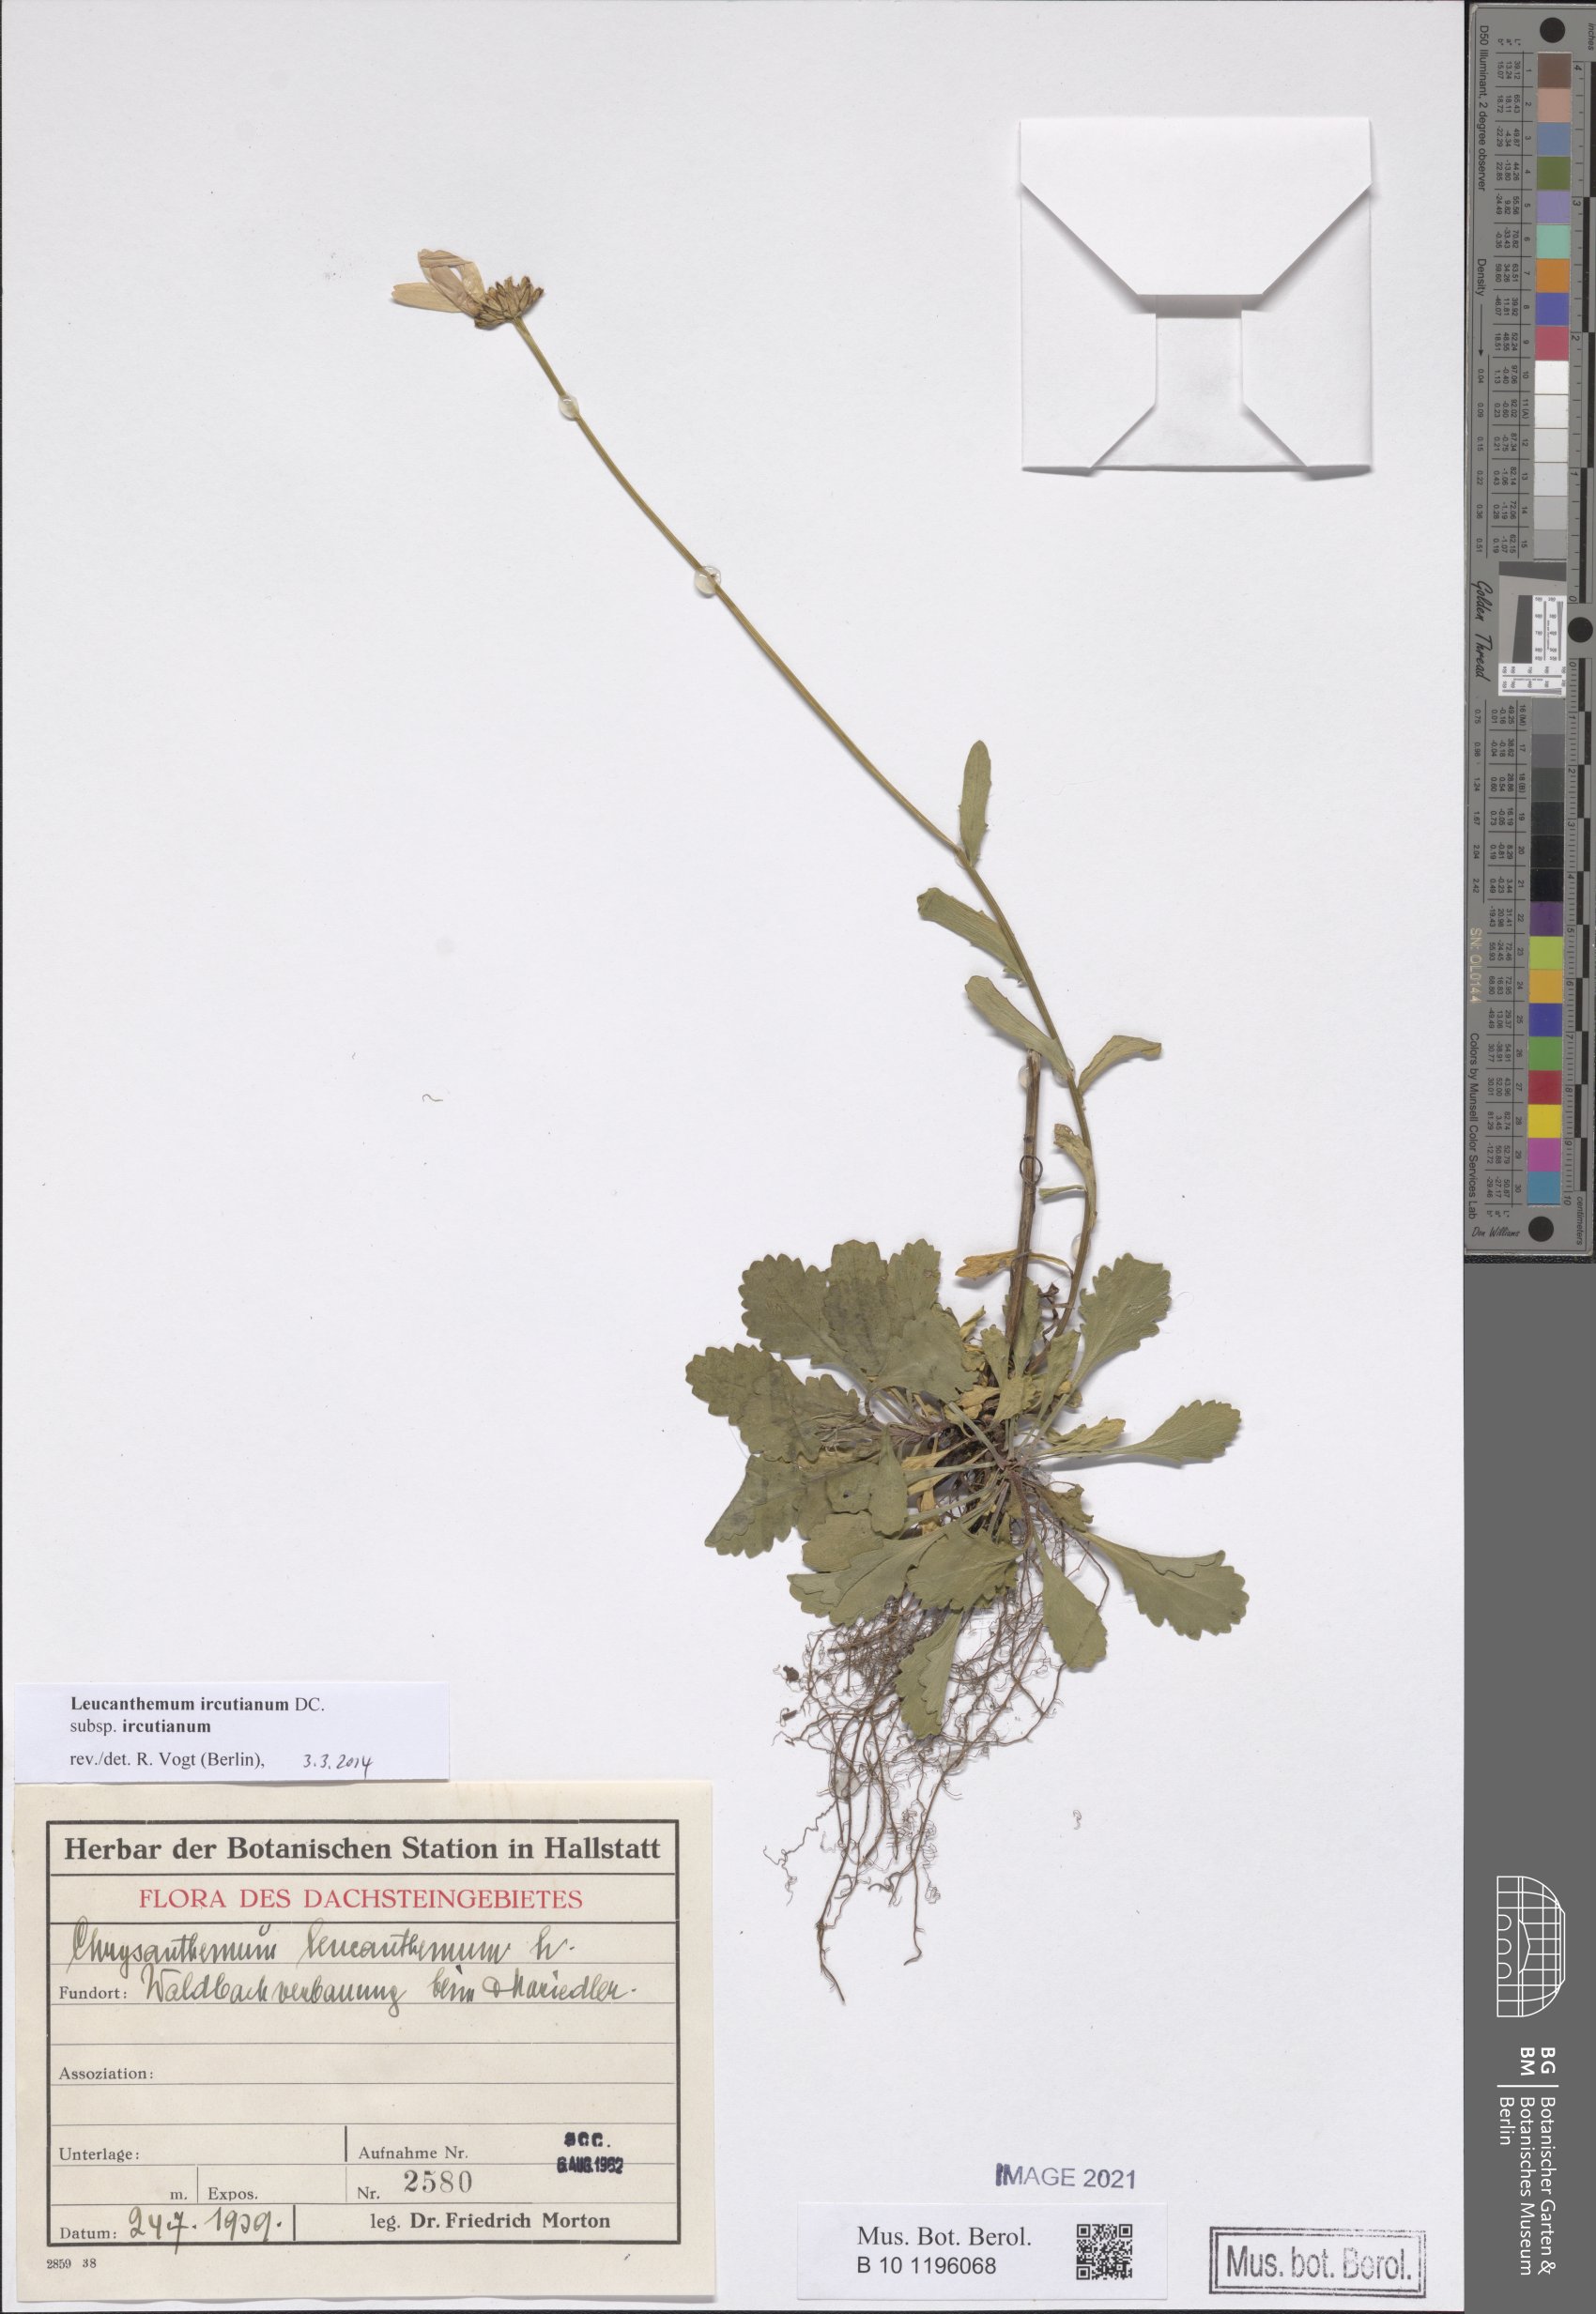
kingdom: Plantae
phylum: Tracheophyta
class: Magnoliopsida
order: Asterales
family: Asteraceae
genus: Leucanthemum
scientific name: Leucanthemum ircutianum
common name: Daisy
